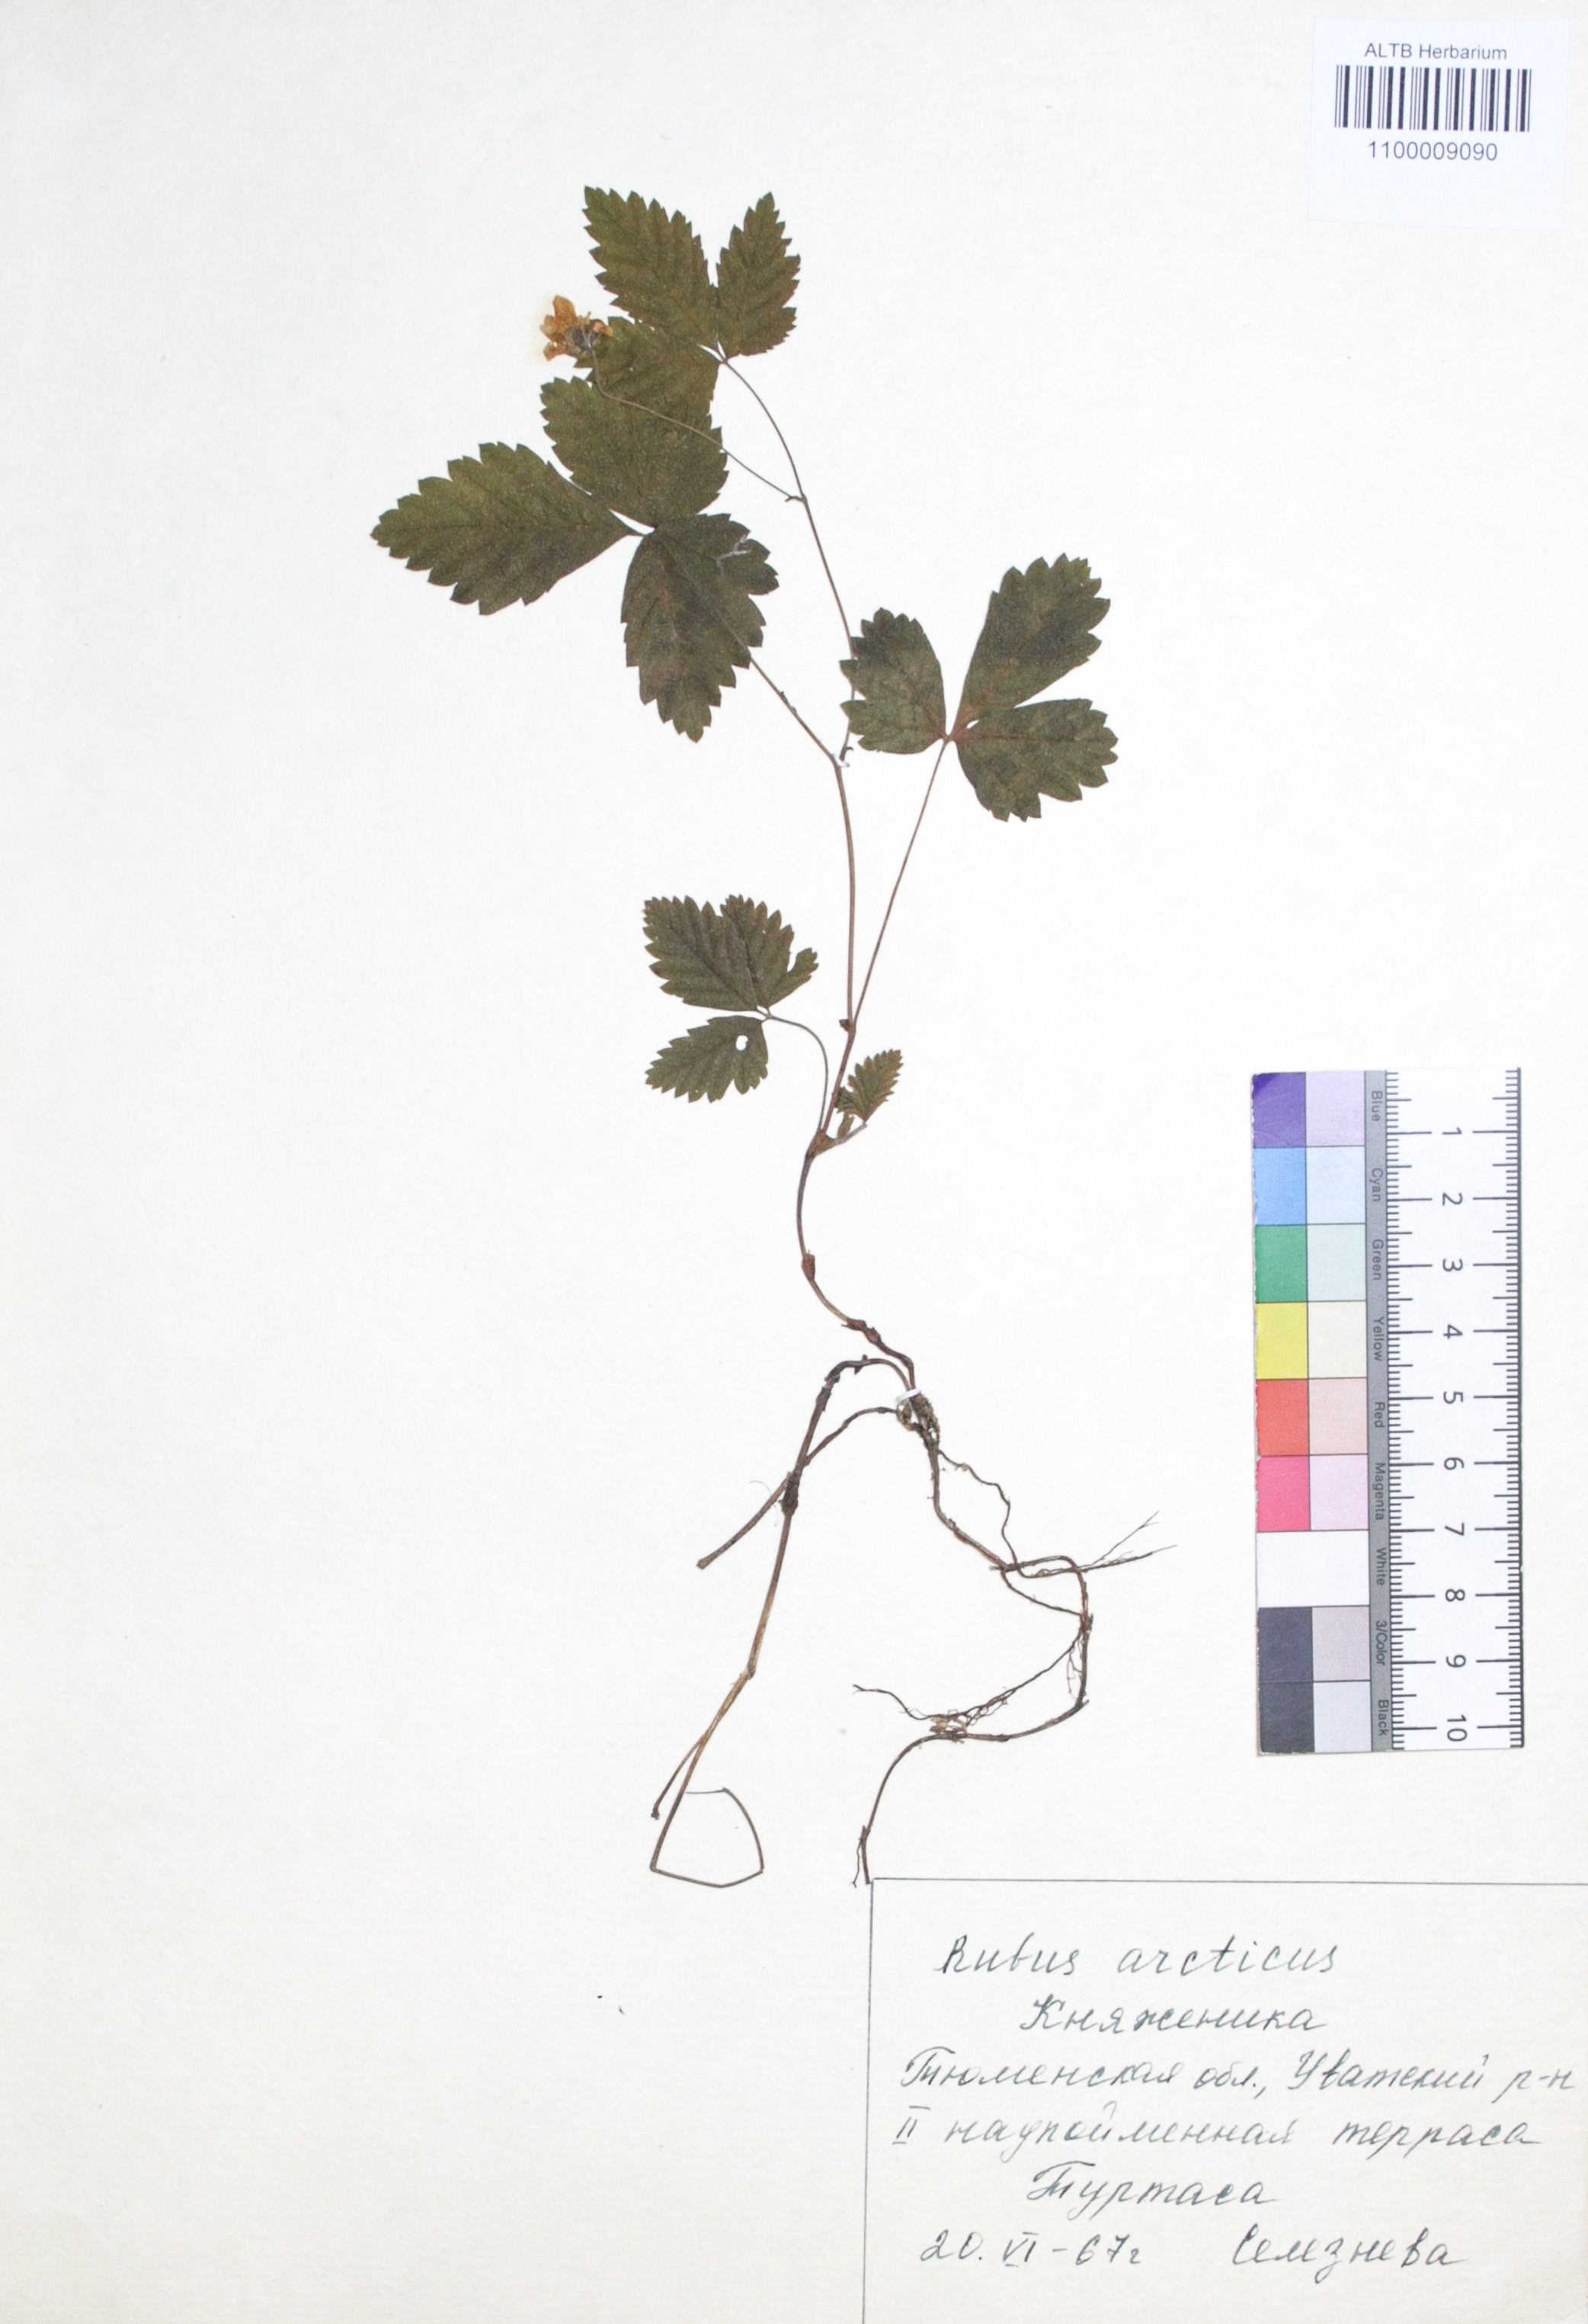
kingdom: Plantae
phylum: Tracheophyta
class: Magnoliopsida
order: Rosales
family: Rosaceae
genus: Rubus
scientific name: Rubus arcticus
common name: Arctic bramble
